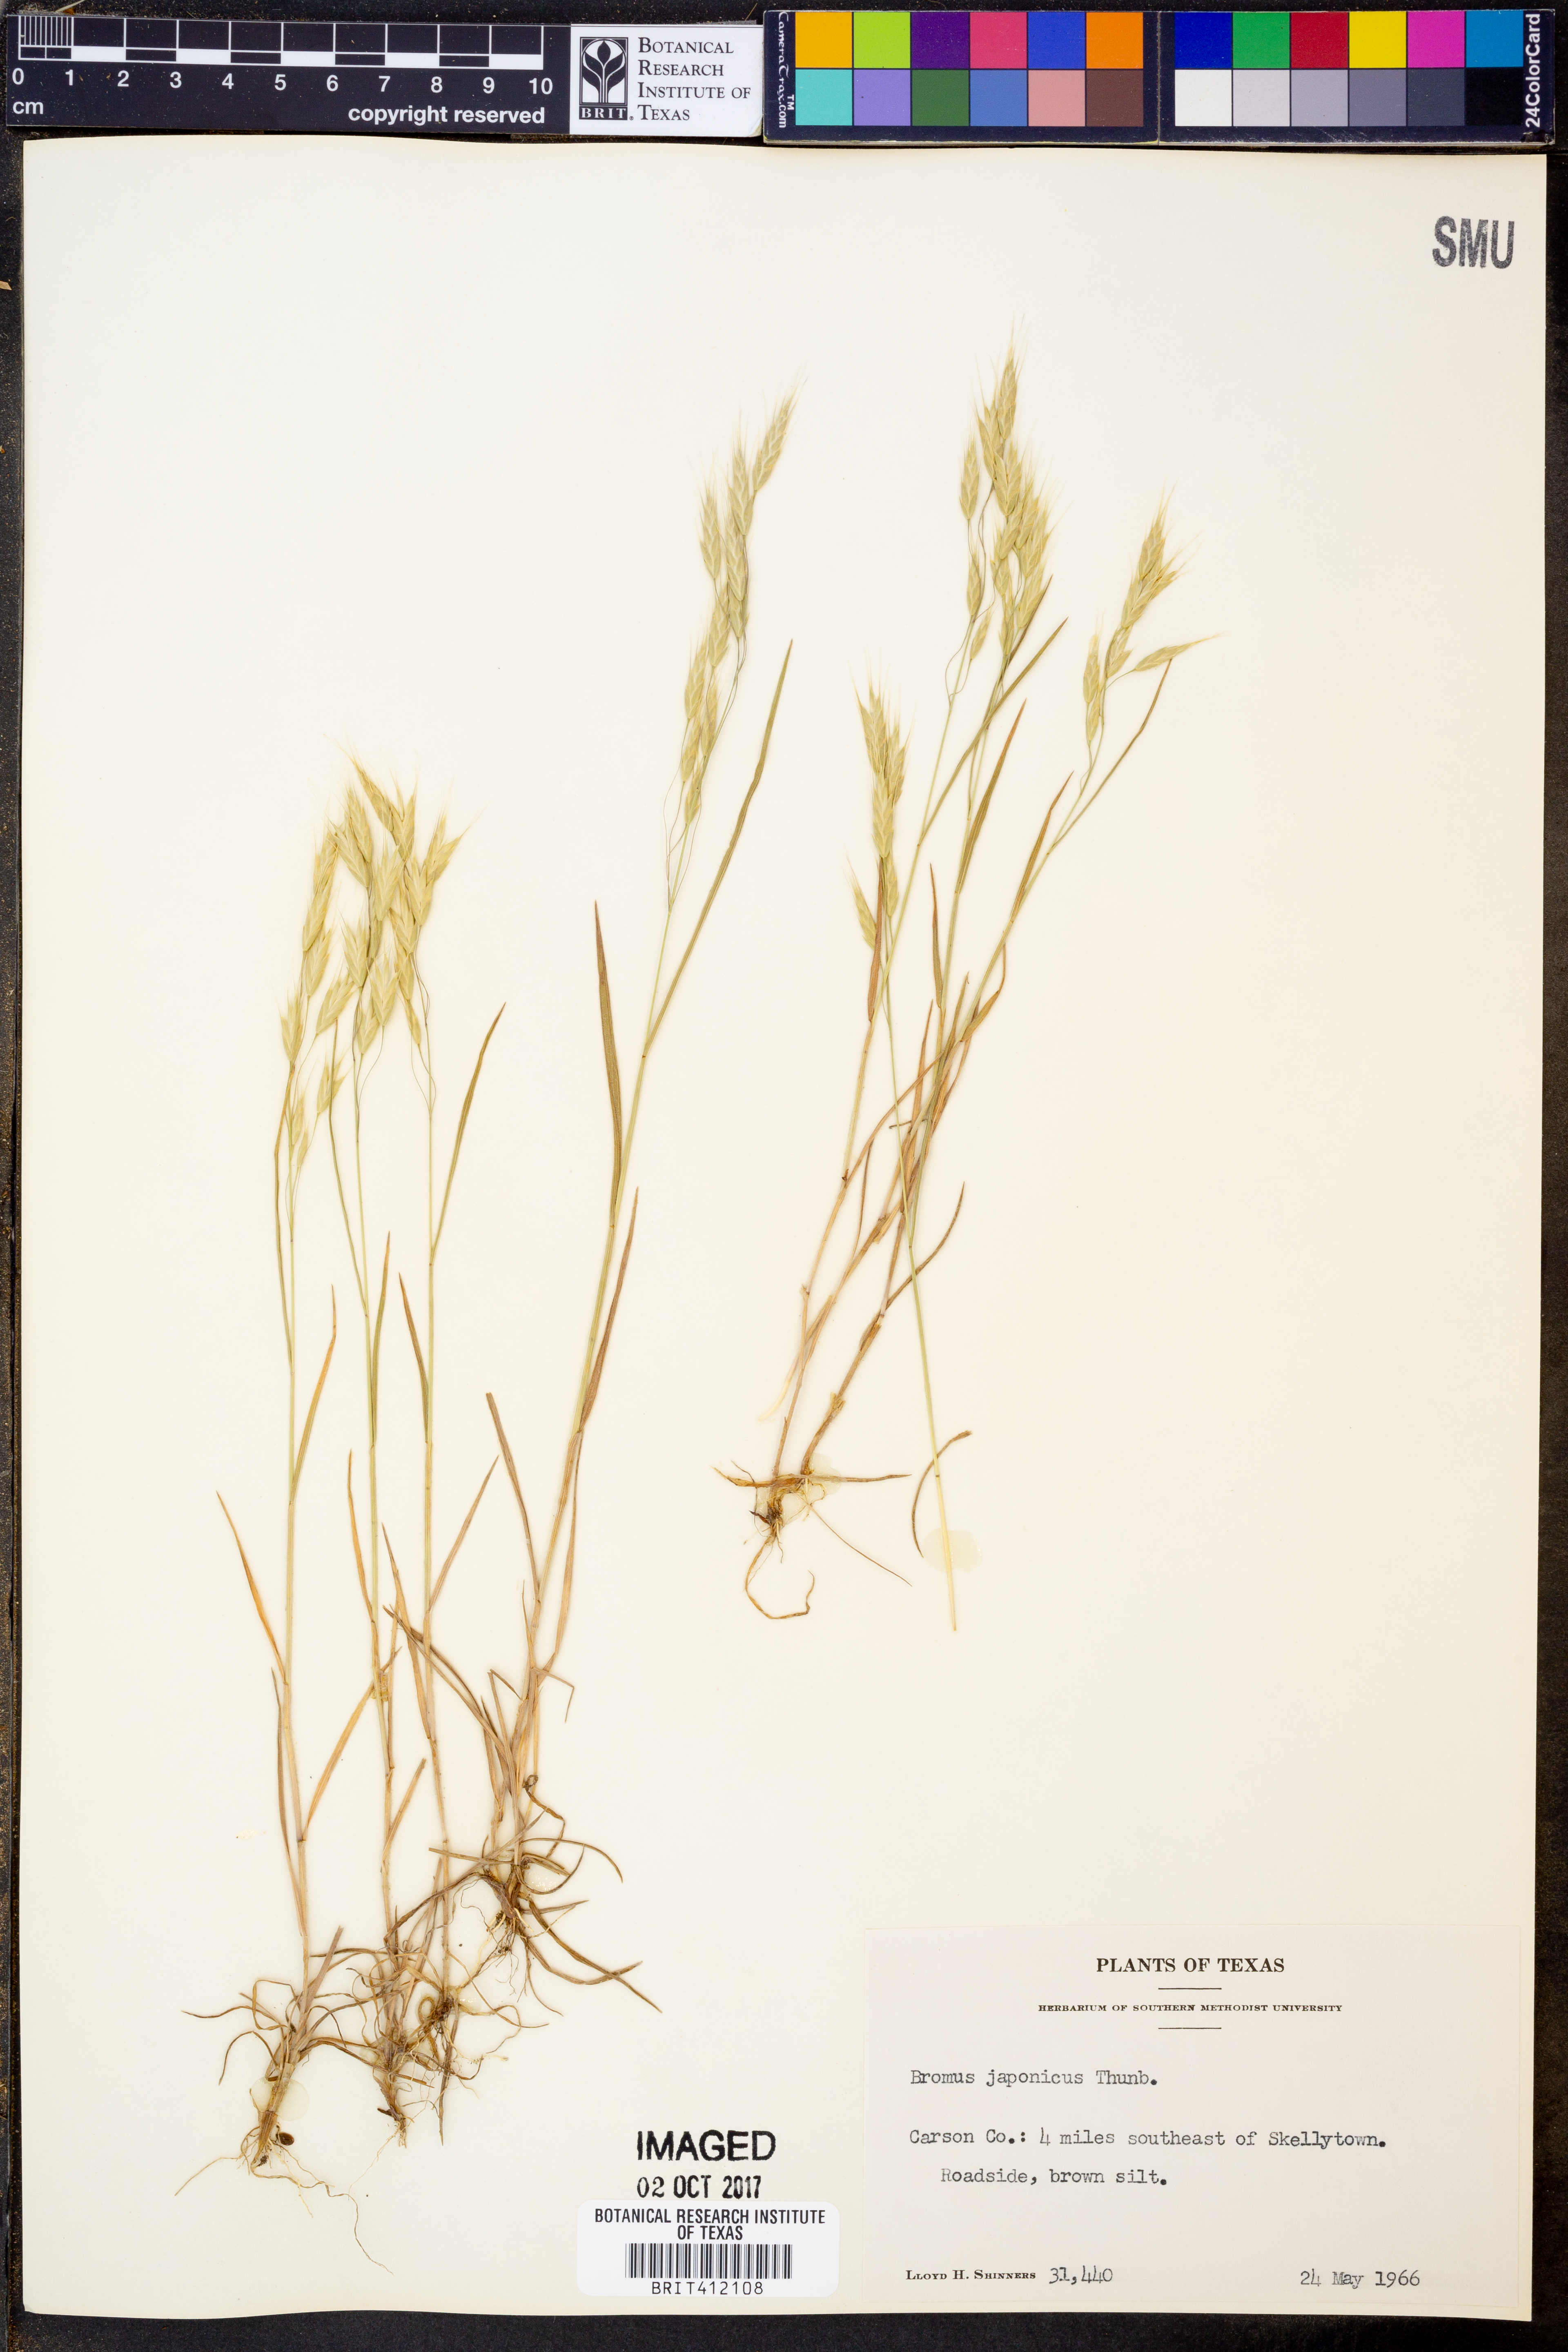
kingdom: Plantae
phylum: Tracheophyta
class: Liliopsida
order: Poales
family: Poaceae
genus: Bromus
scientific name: Bromus japonicus
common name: Japanese brome
